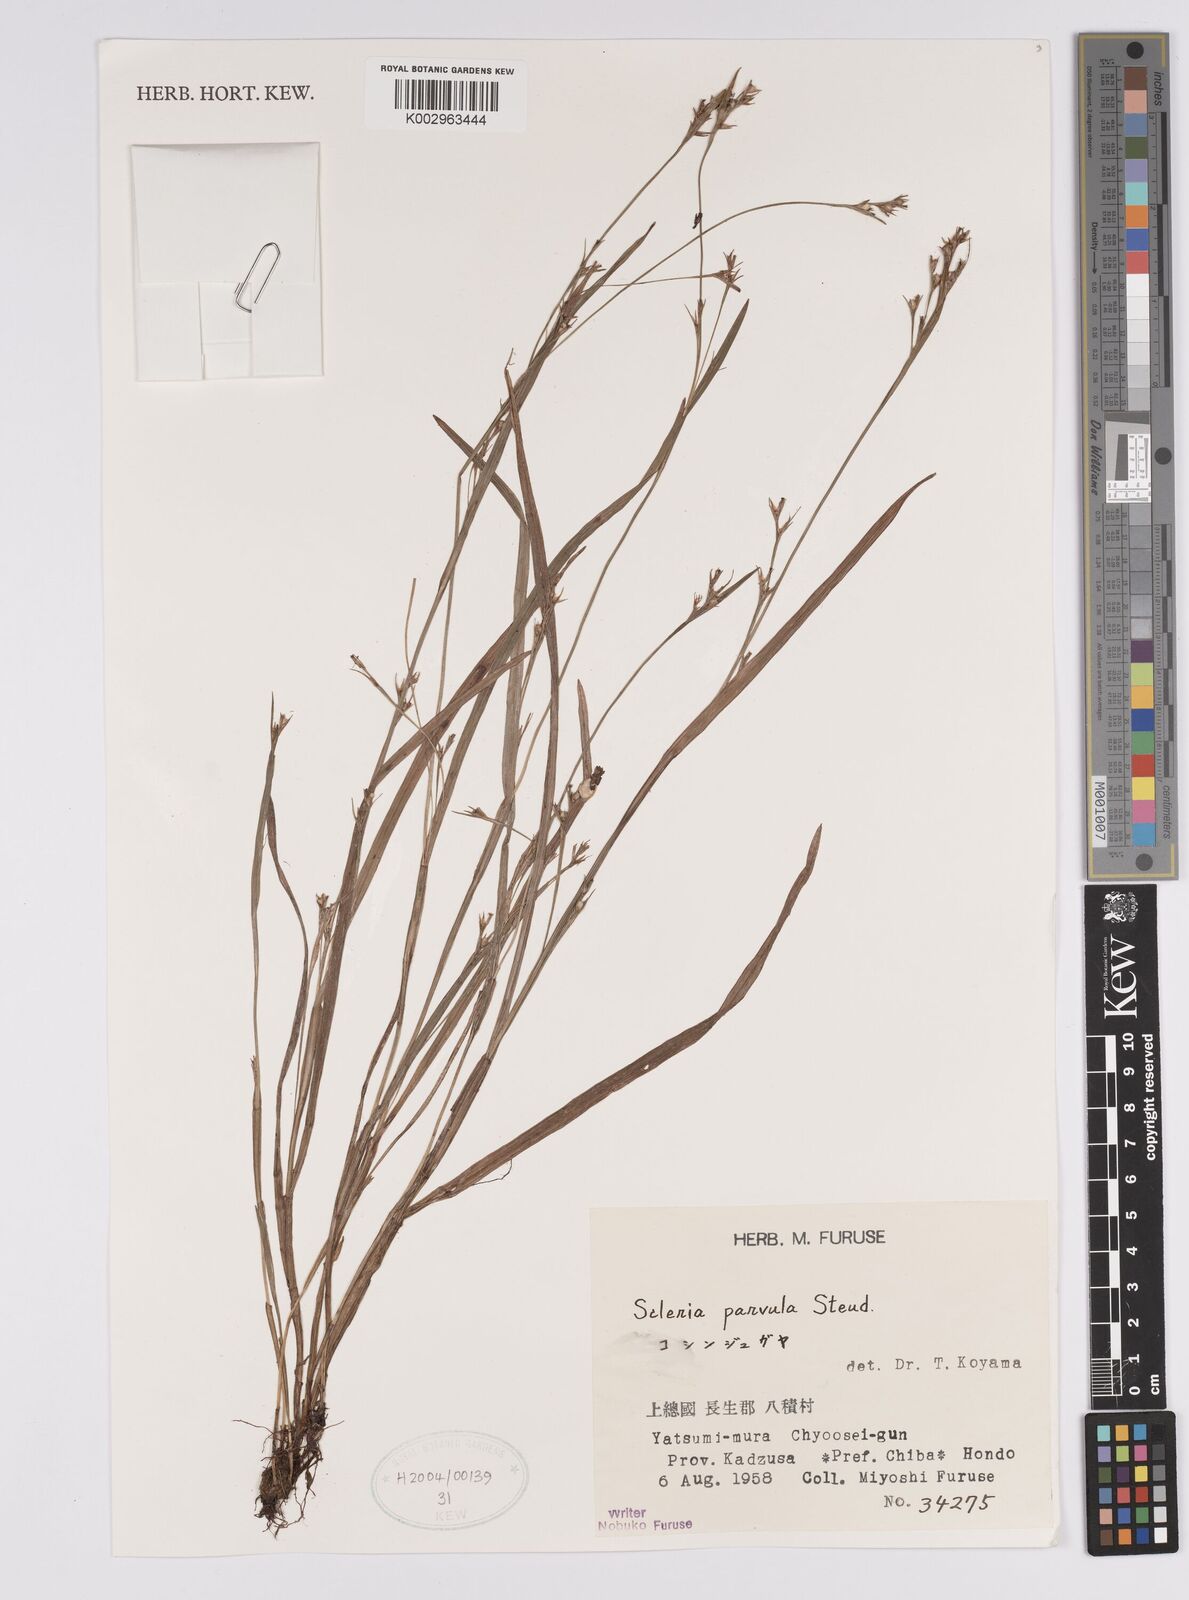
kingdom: Plantae
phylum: Tracheophyta
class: Liliopsida
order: Poales
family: Cyperaceae
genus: Scleria
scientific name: Scleria parvula
